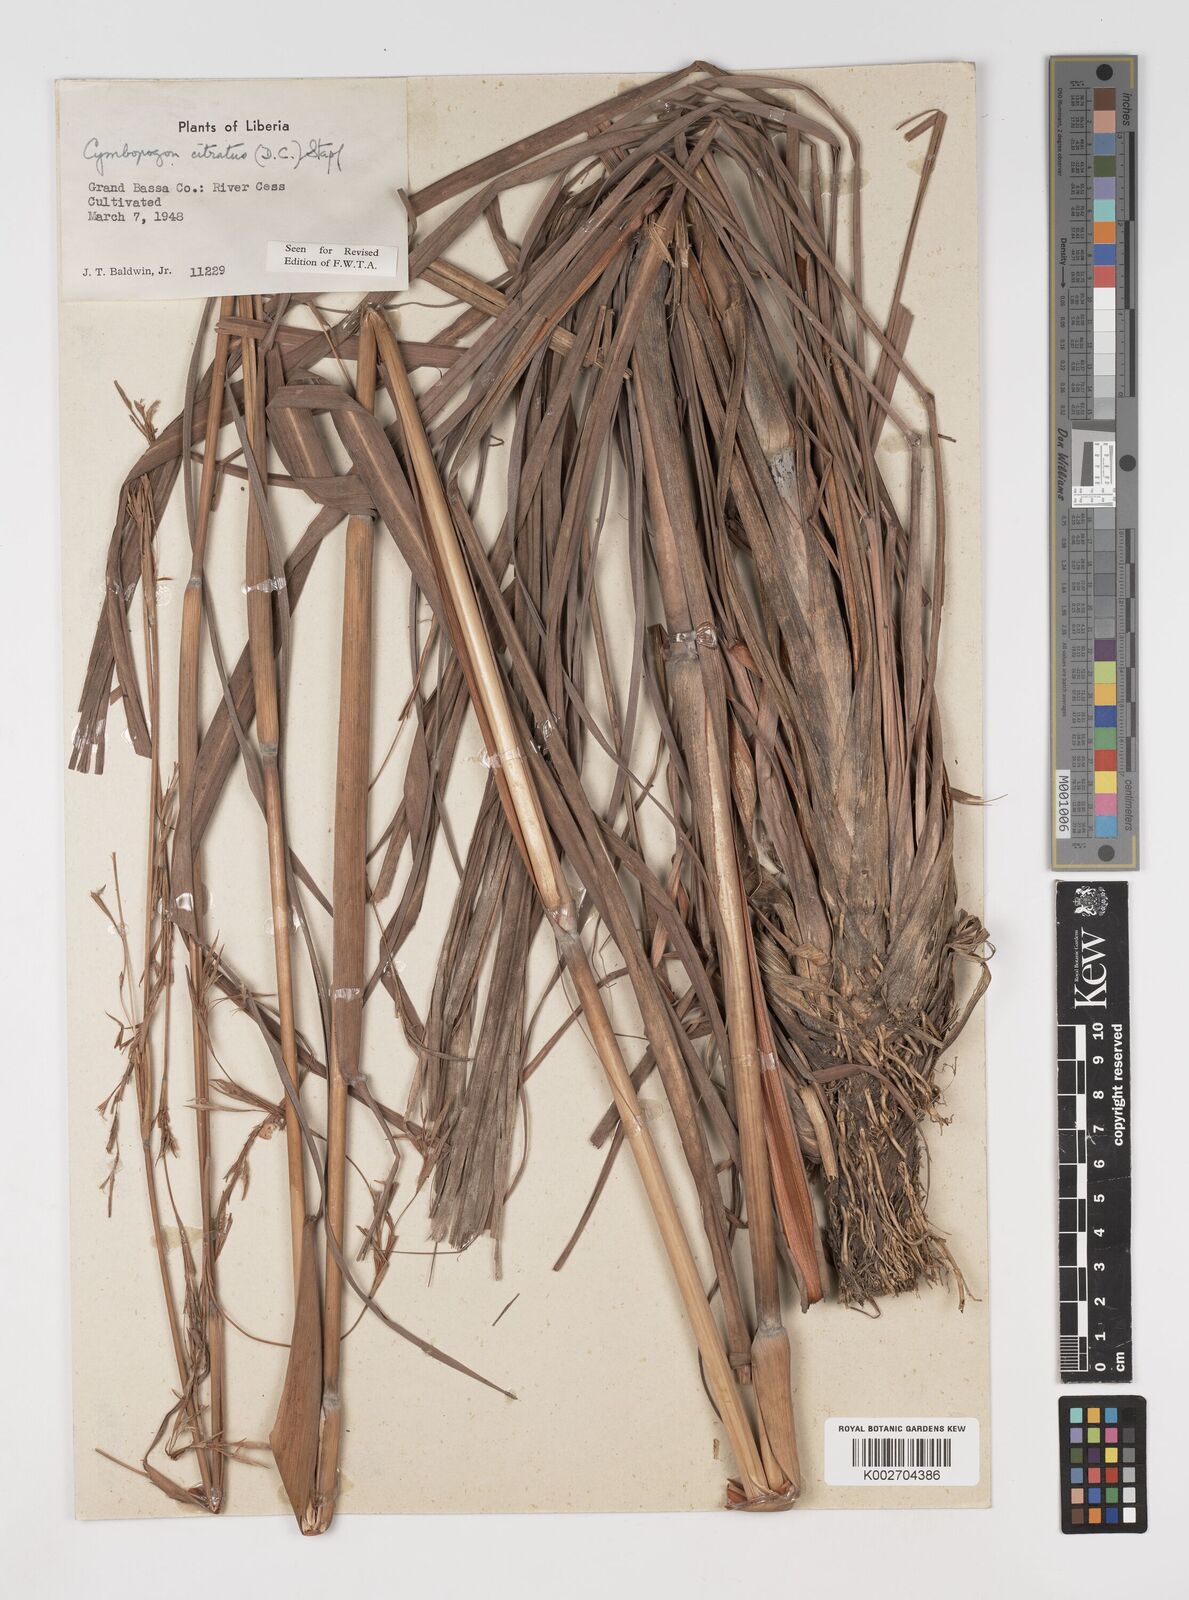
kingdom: Plantae
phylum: Tracheophyta
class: Liliopsida
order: Poales
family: Poaceae
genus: Cymbopogon
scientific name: Cymbopogon citratus
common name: Lemon grass
